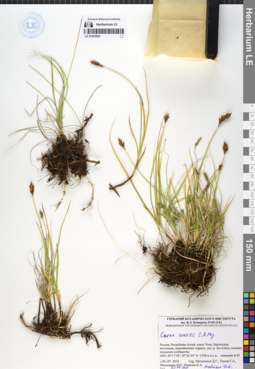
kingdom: Plantae
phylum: Tracheophyta
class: Liliopsida
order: Poales
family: Cyperaceae
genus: Carex
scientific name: Carex enervis
